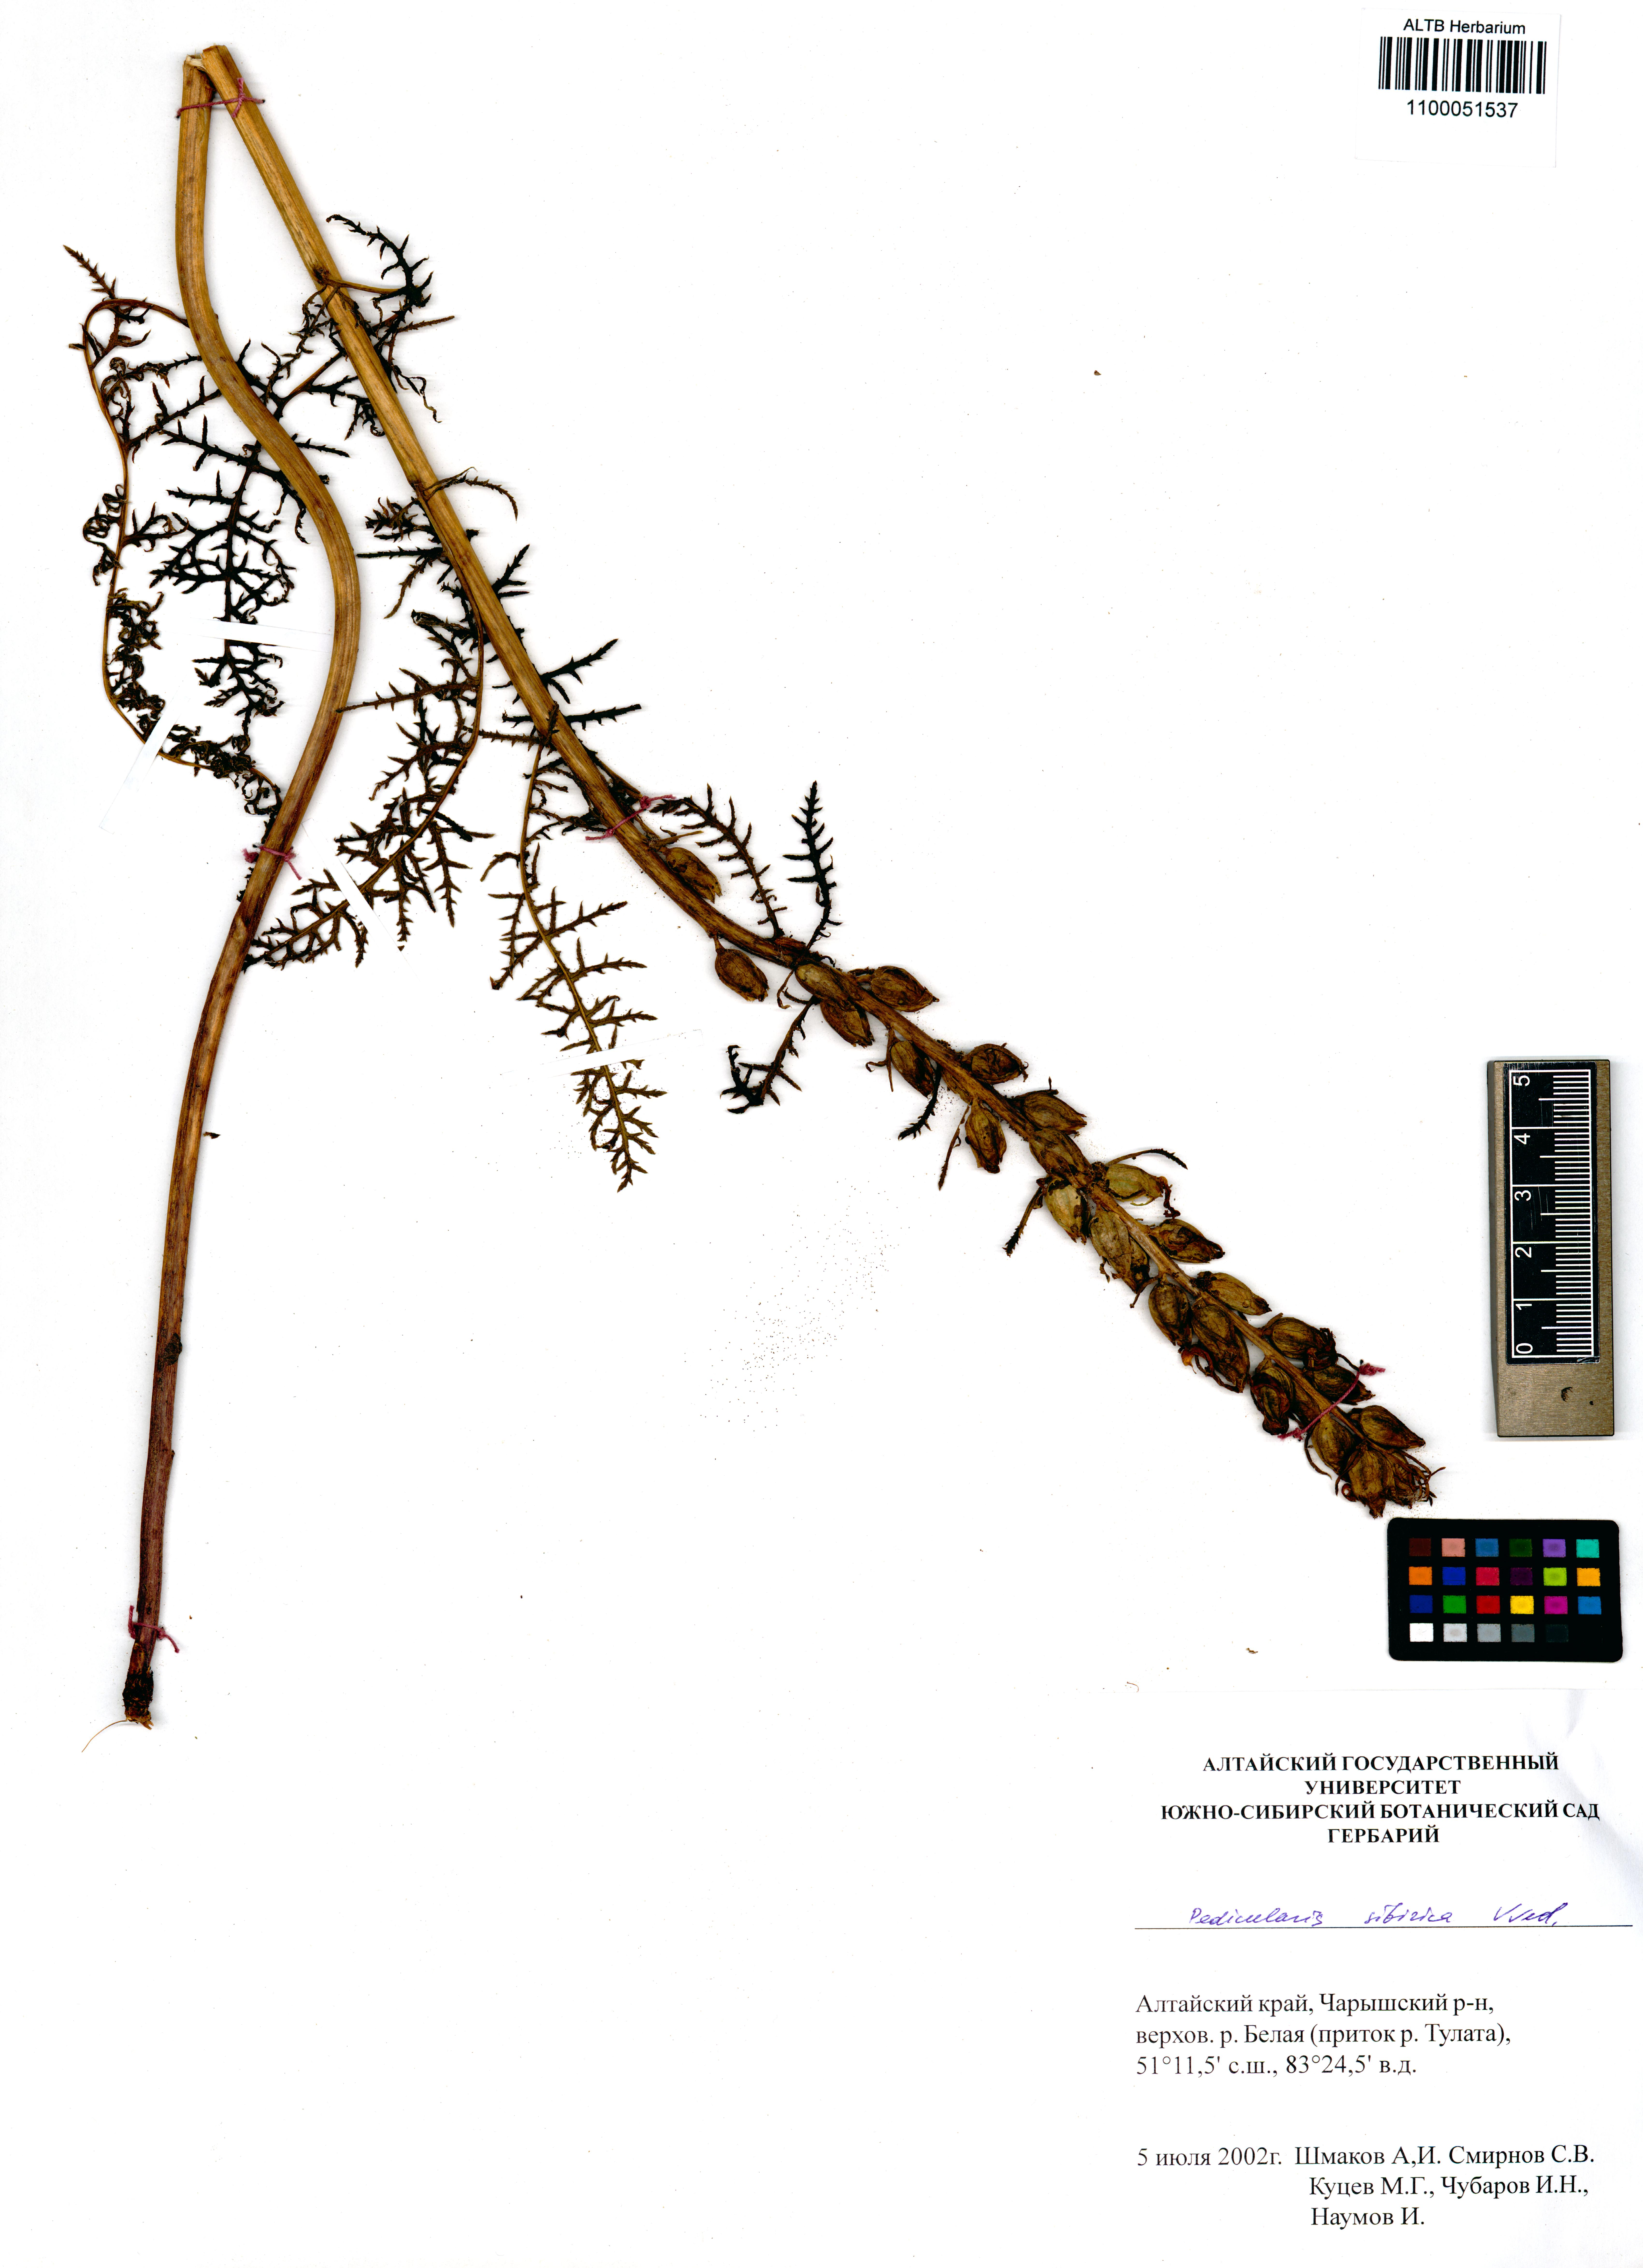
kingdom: Plantae
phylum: Tracheophyta
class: Magnoliopsida
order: Lamiales
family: Orobanchaceae
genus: Pedicularis
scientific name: Pedicularis sibirica
